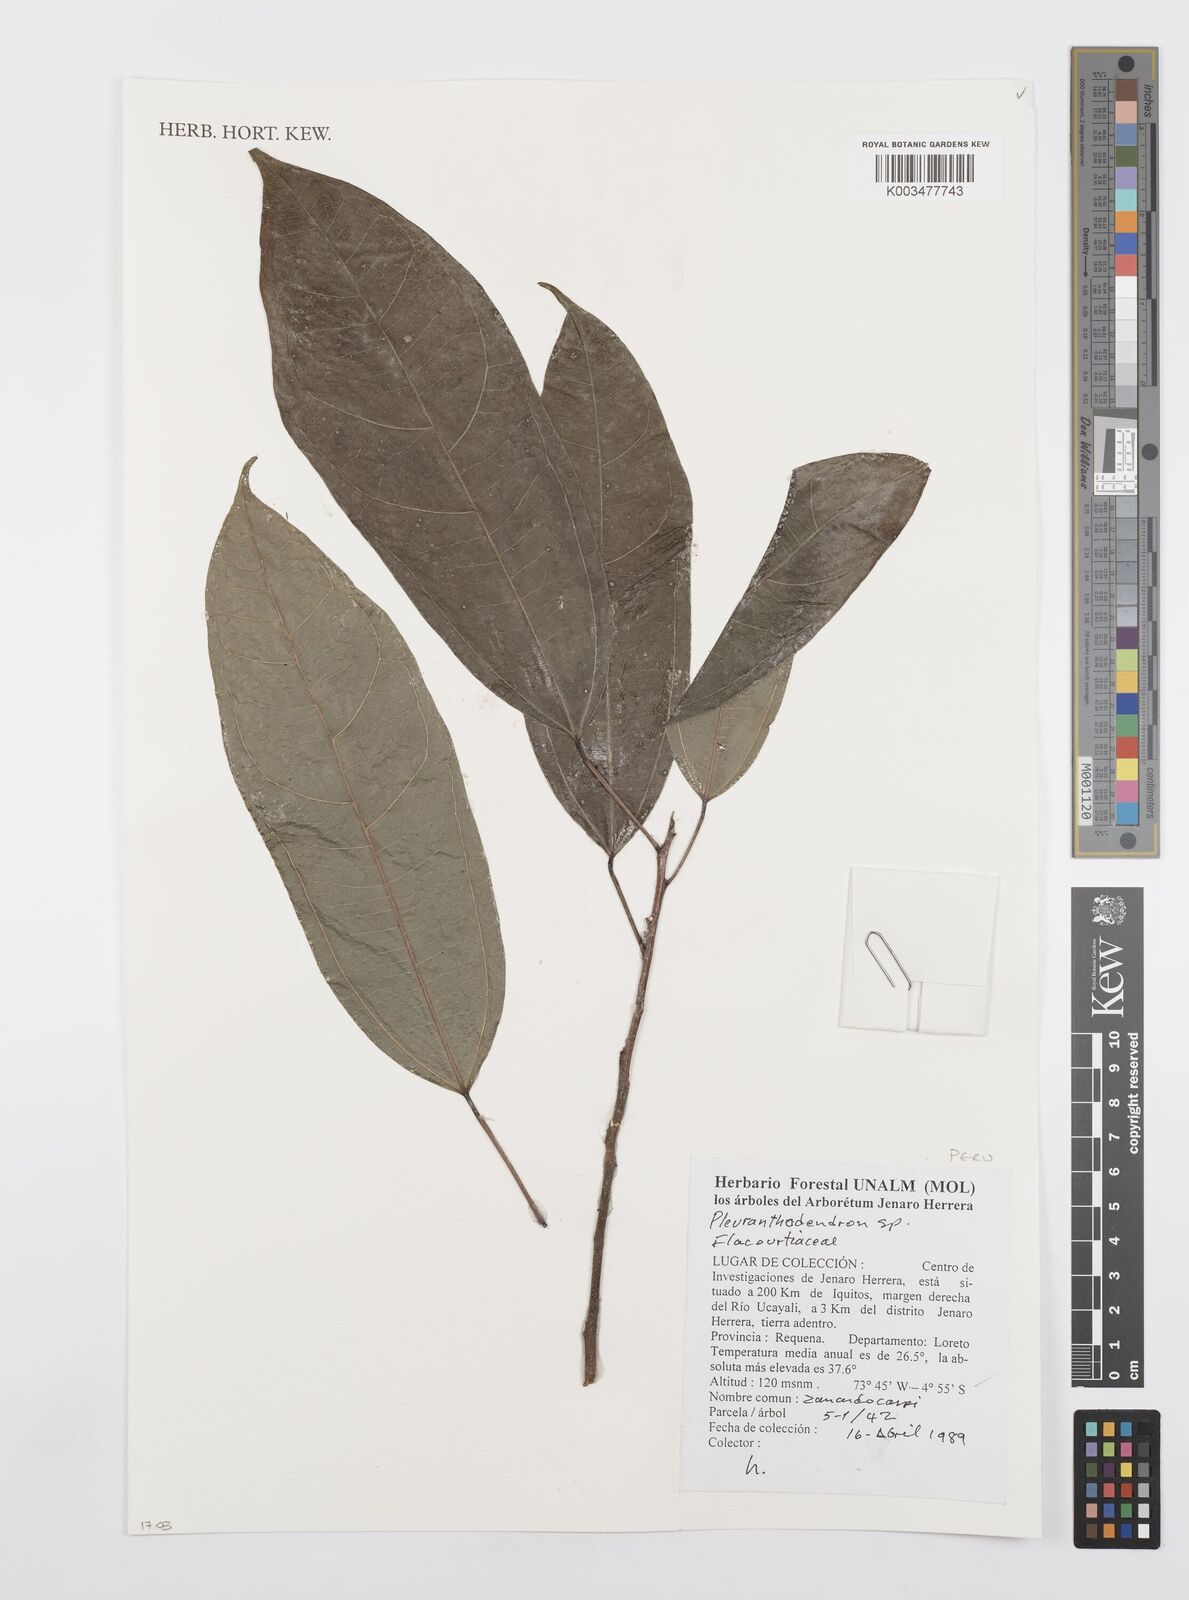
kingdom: Plantae
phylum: Tracheophyta
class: Magnoliopsida
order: Malpighiales
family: Salicaceae
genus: Pleuranthodendron
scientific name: Pleuranthodendron
